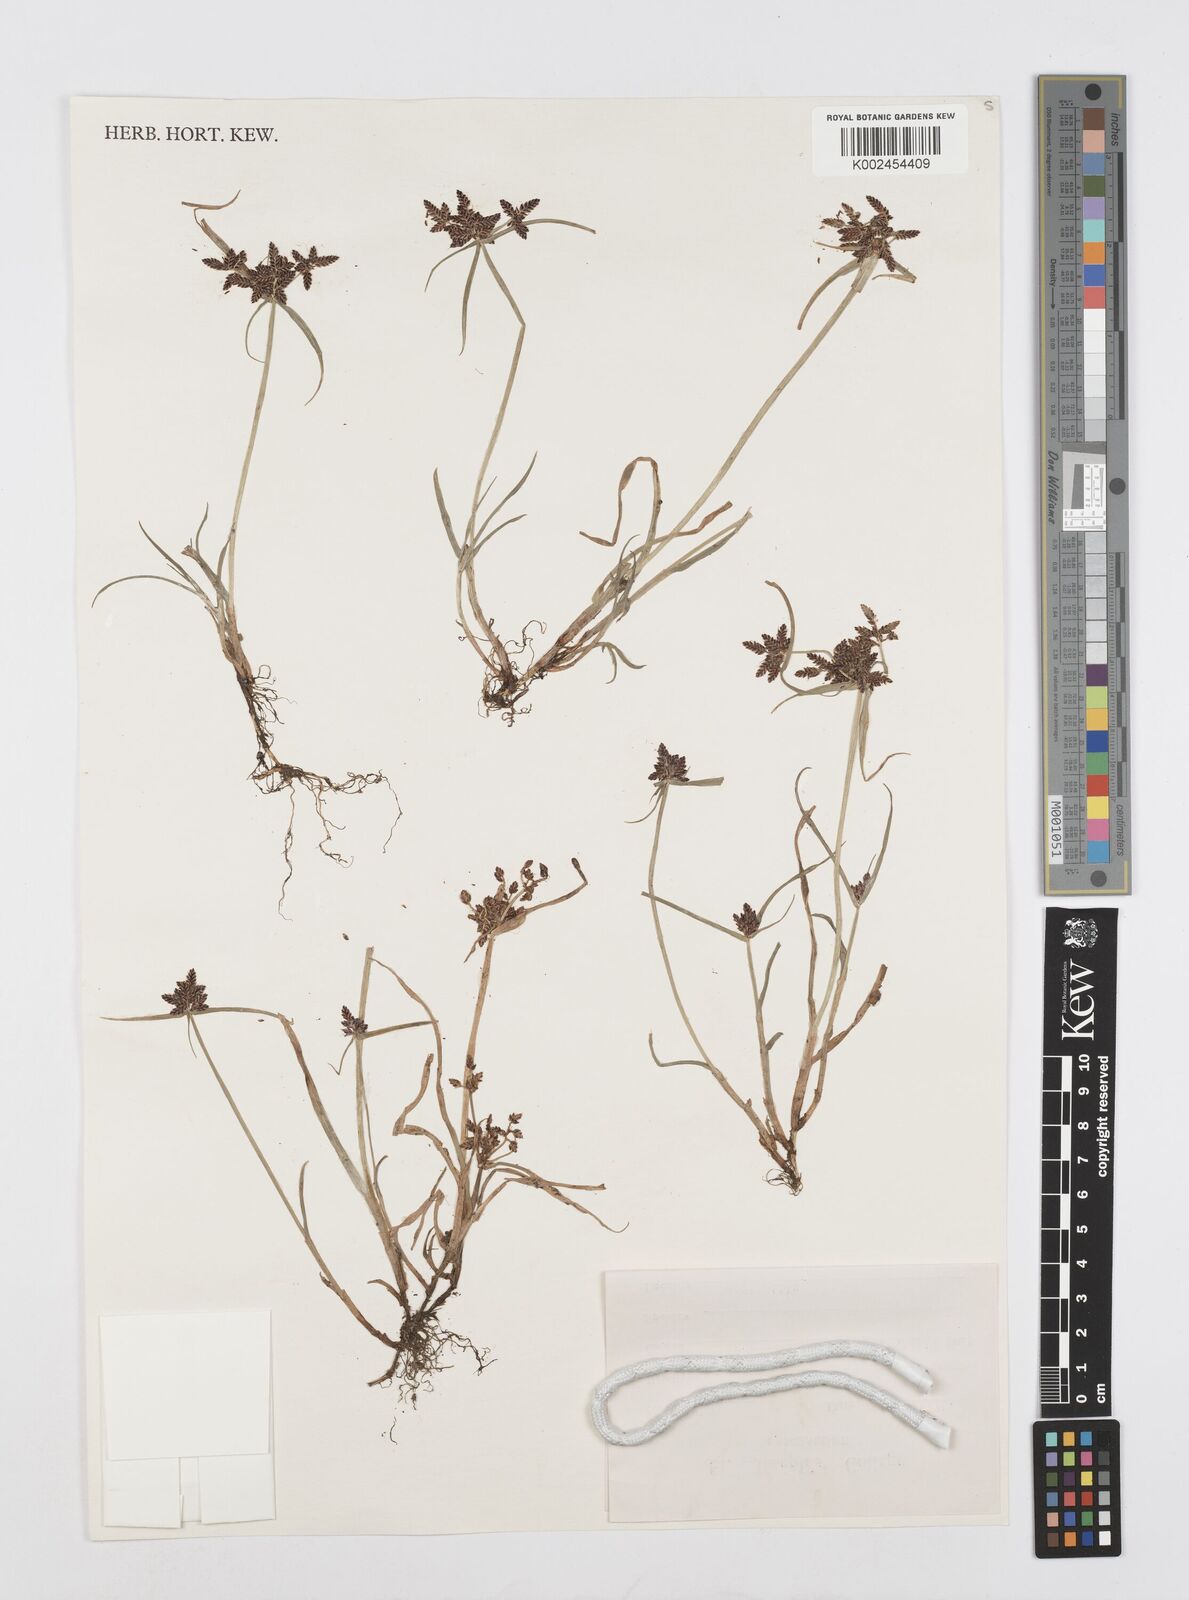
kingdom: Plantae
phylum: Tracheophyta
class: Liliopsida
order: Poales
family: Cyperaceae
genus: Cyperus
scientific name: Cyperus sanguinolentus
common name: Purpleglume flatsedge
